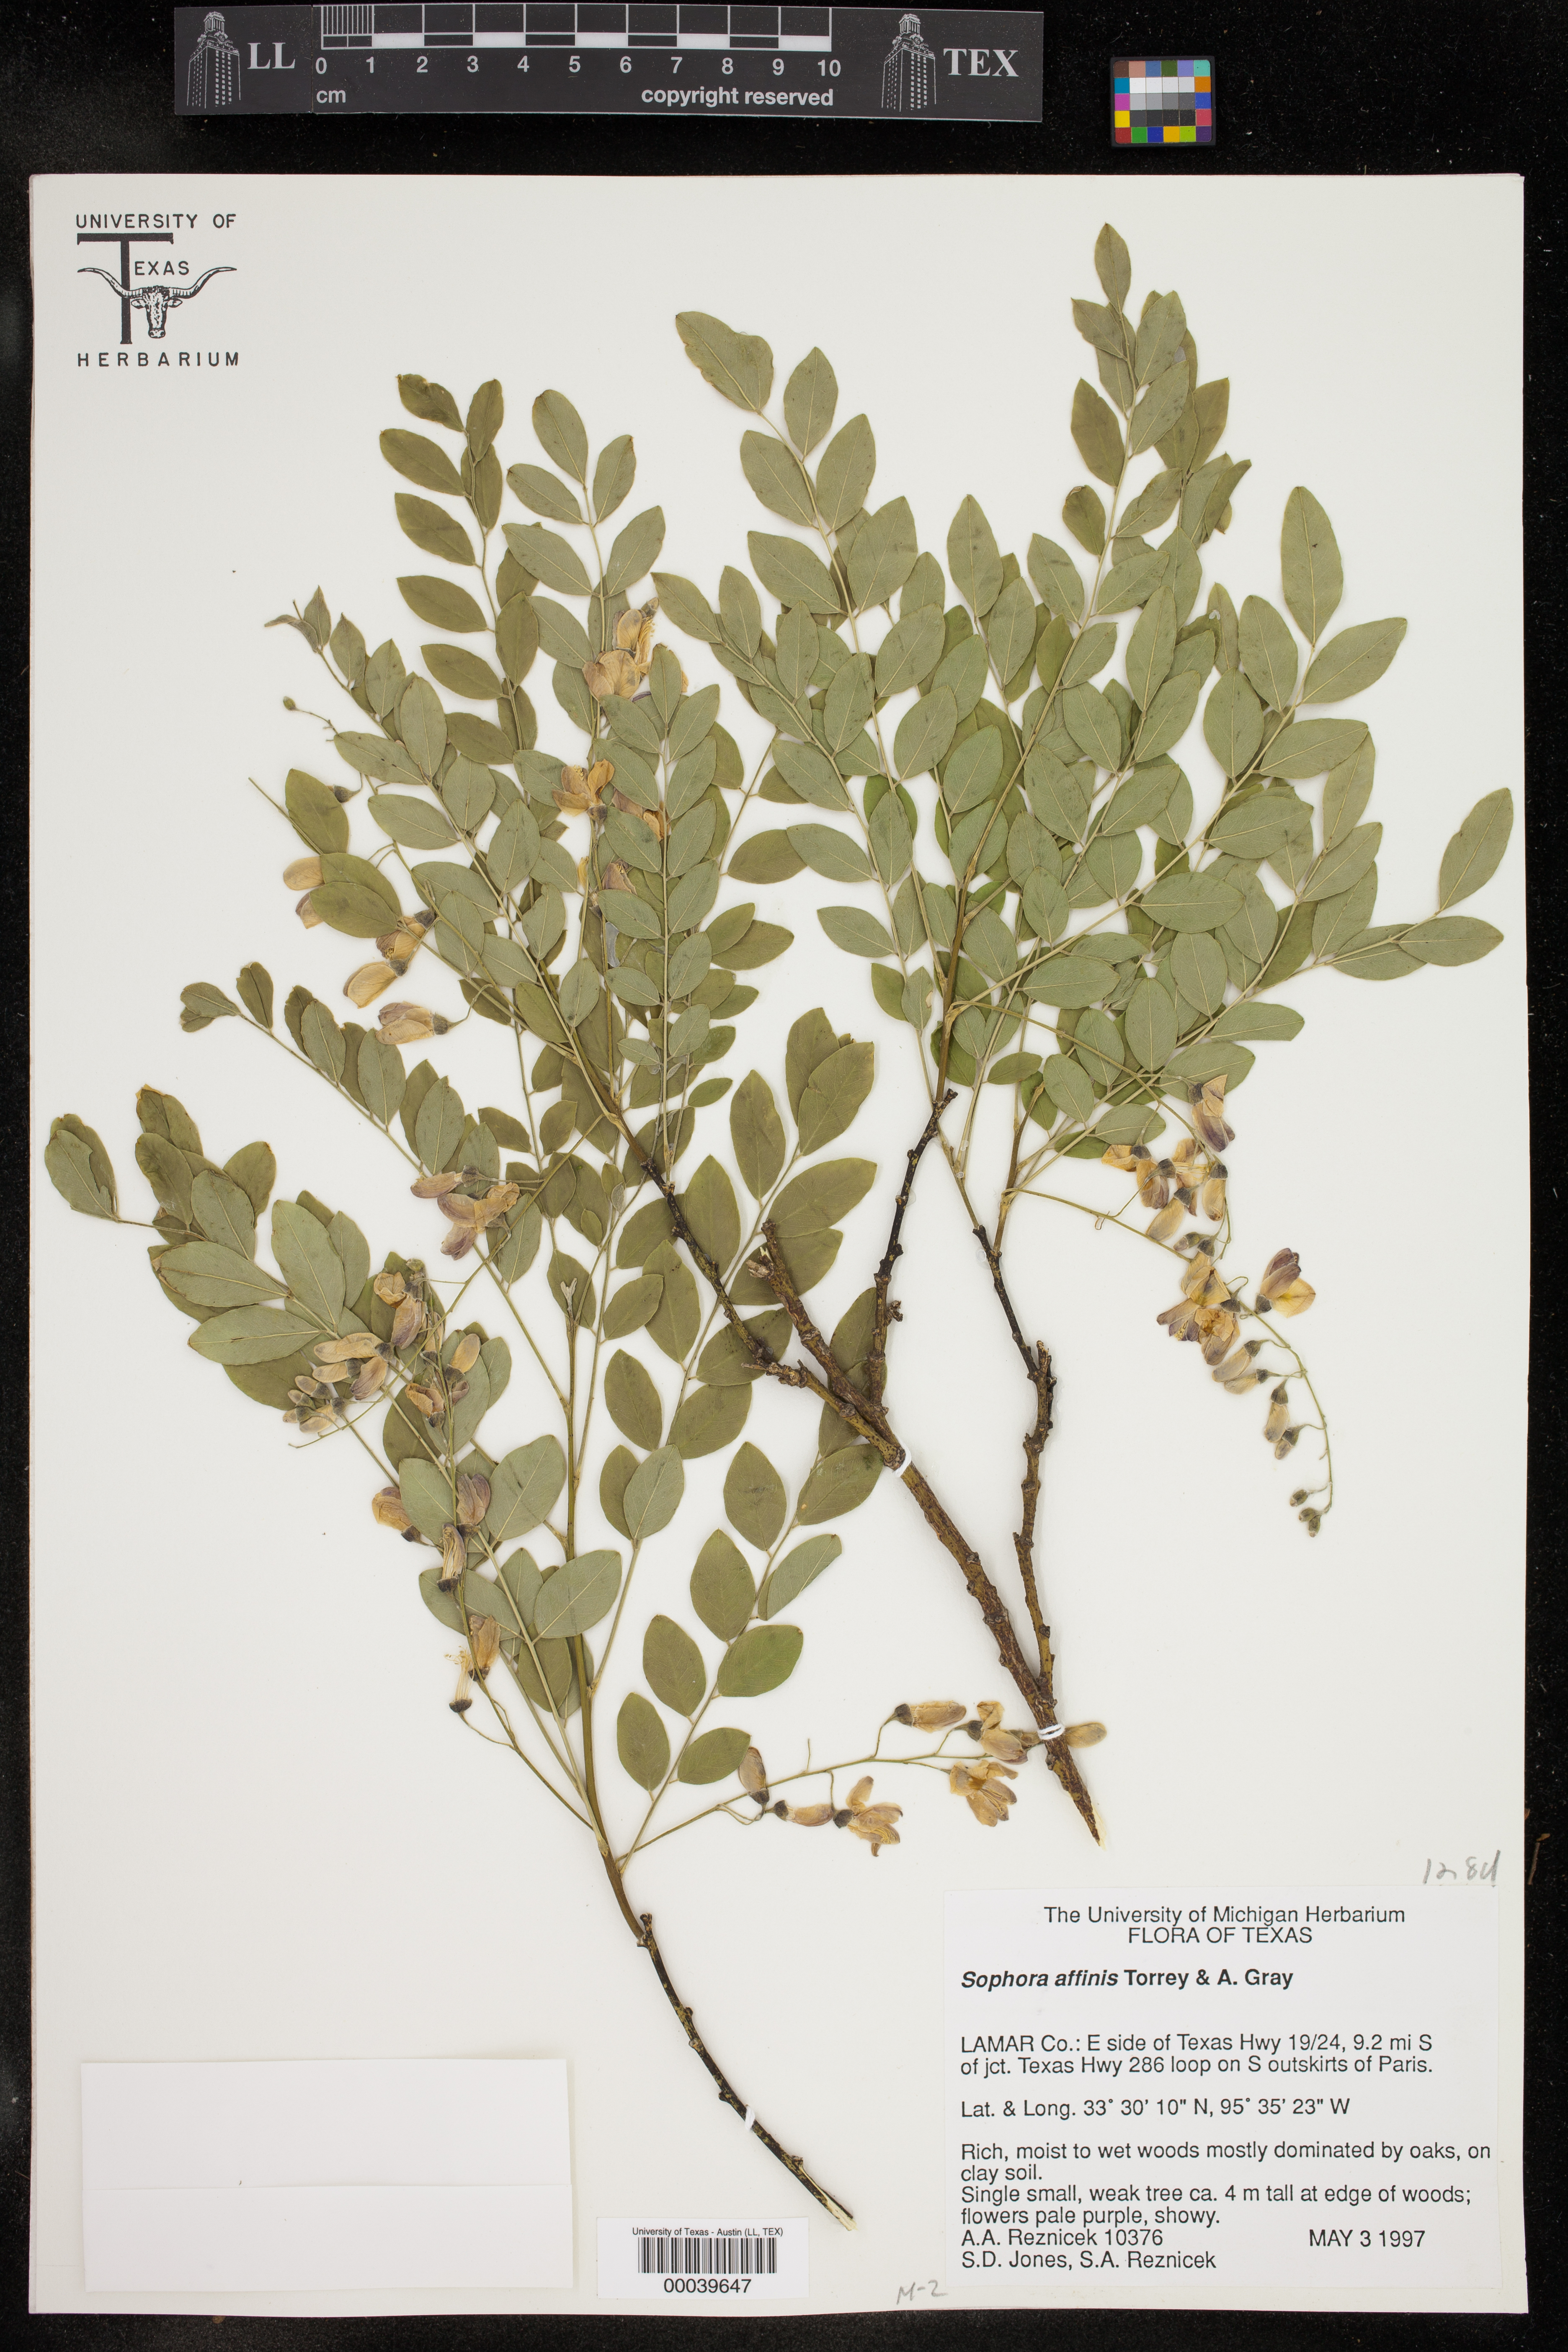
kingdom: Plantae
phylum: Tracheophyta
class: Magnoliopsida
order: Fabales
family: Fabaceae
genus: Styphnolobium
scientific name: Styphnolobium affine
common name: Texas sophora
